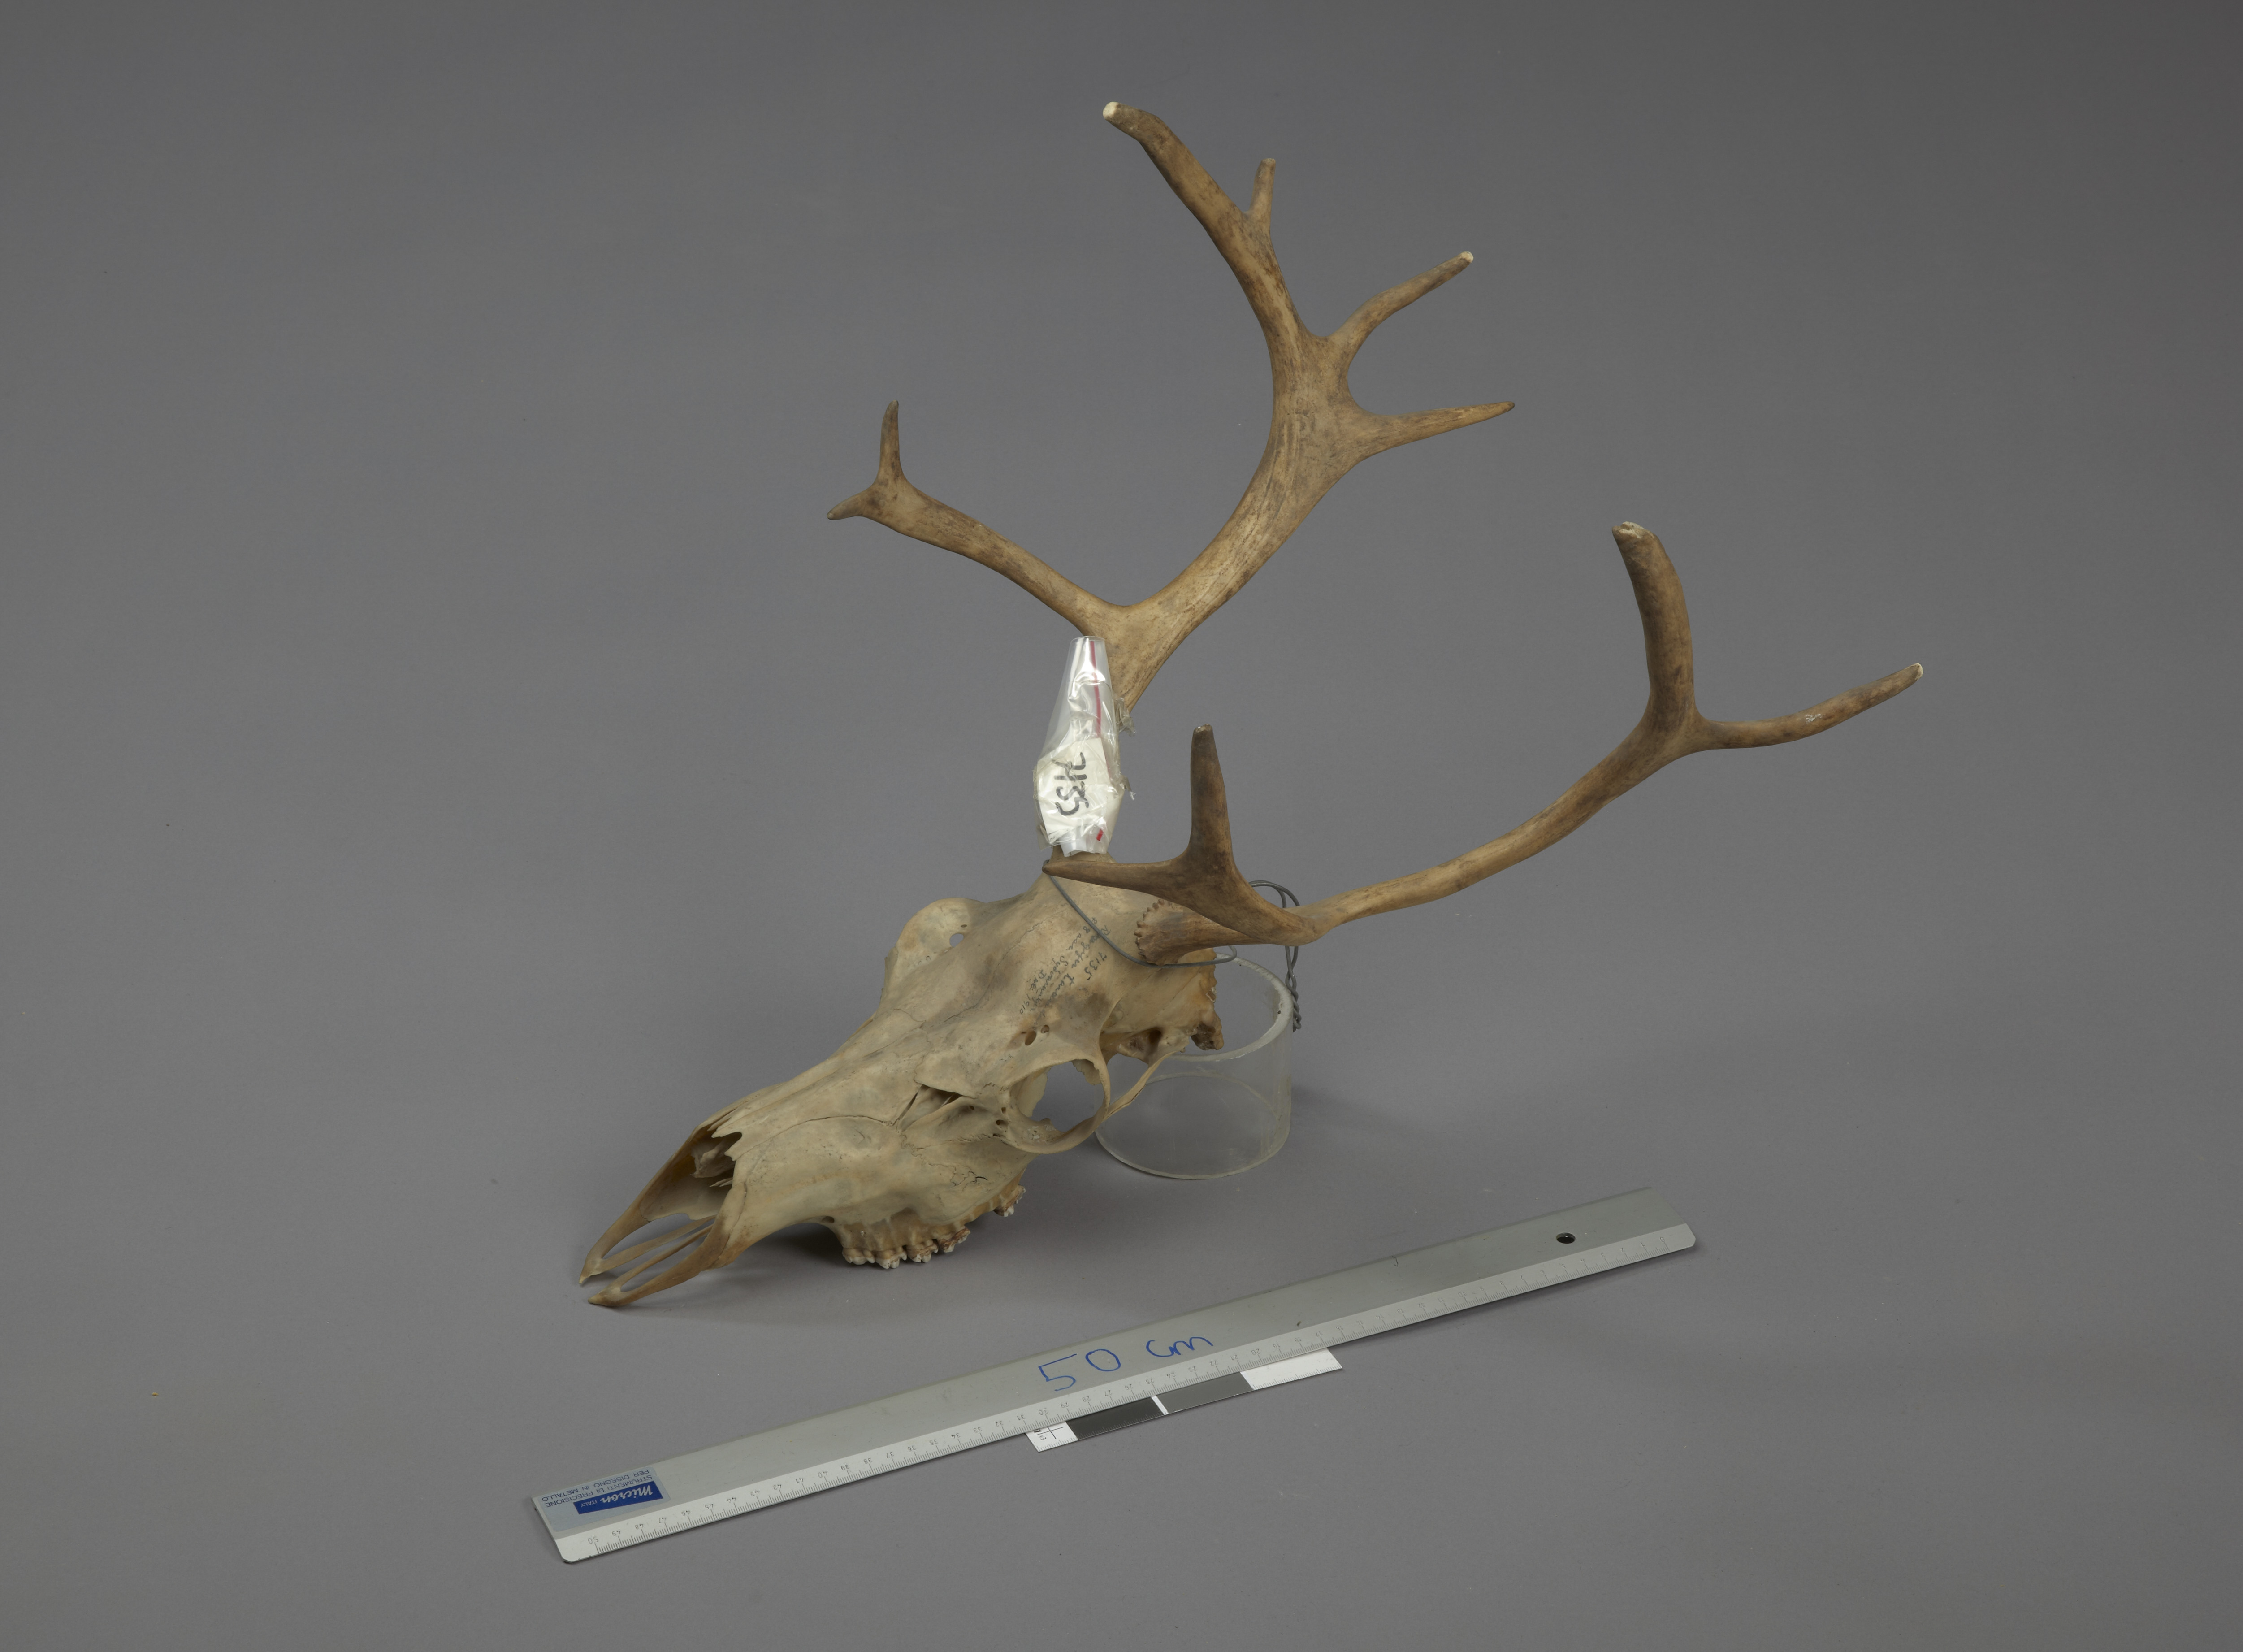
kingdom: Animalia
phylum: Chordata
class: Mammalia
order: Artiodactyla
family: Cervidae
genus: Rangifer
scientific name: Rangifer tarandus
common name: Reindeer
